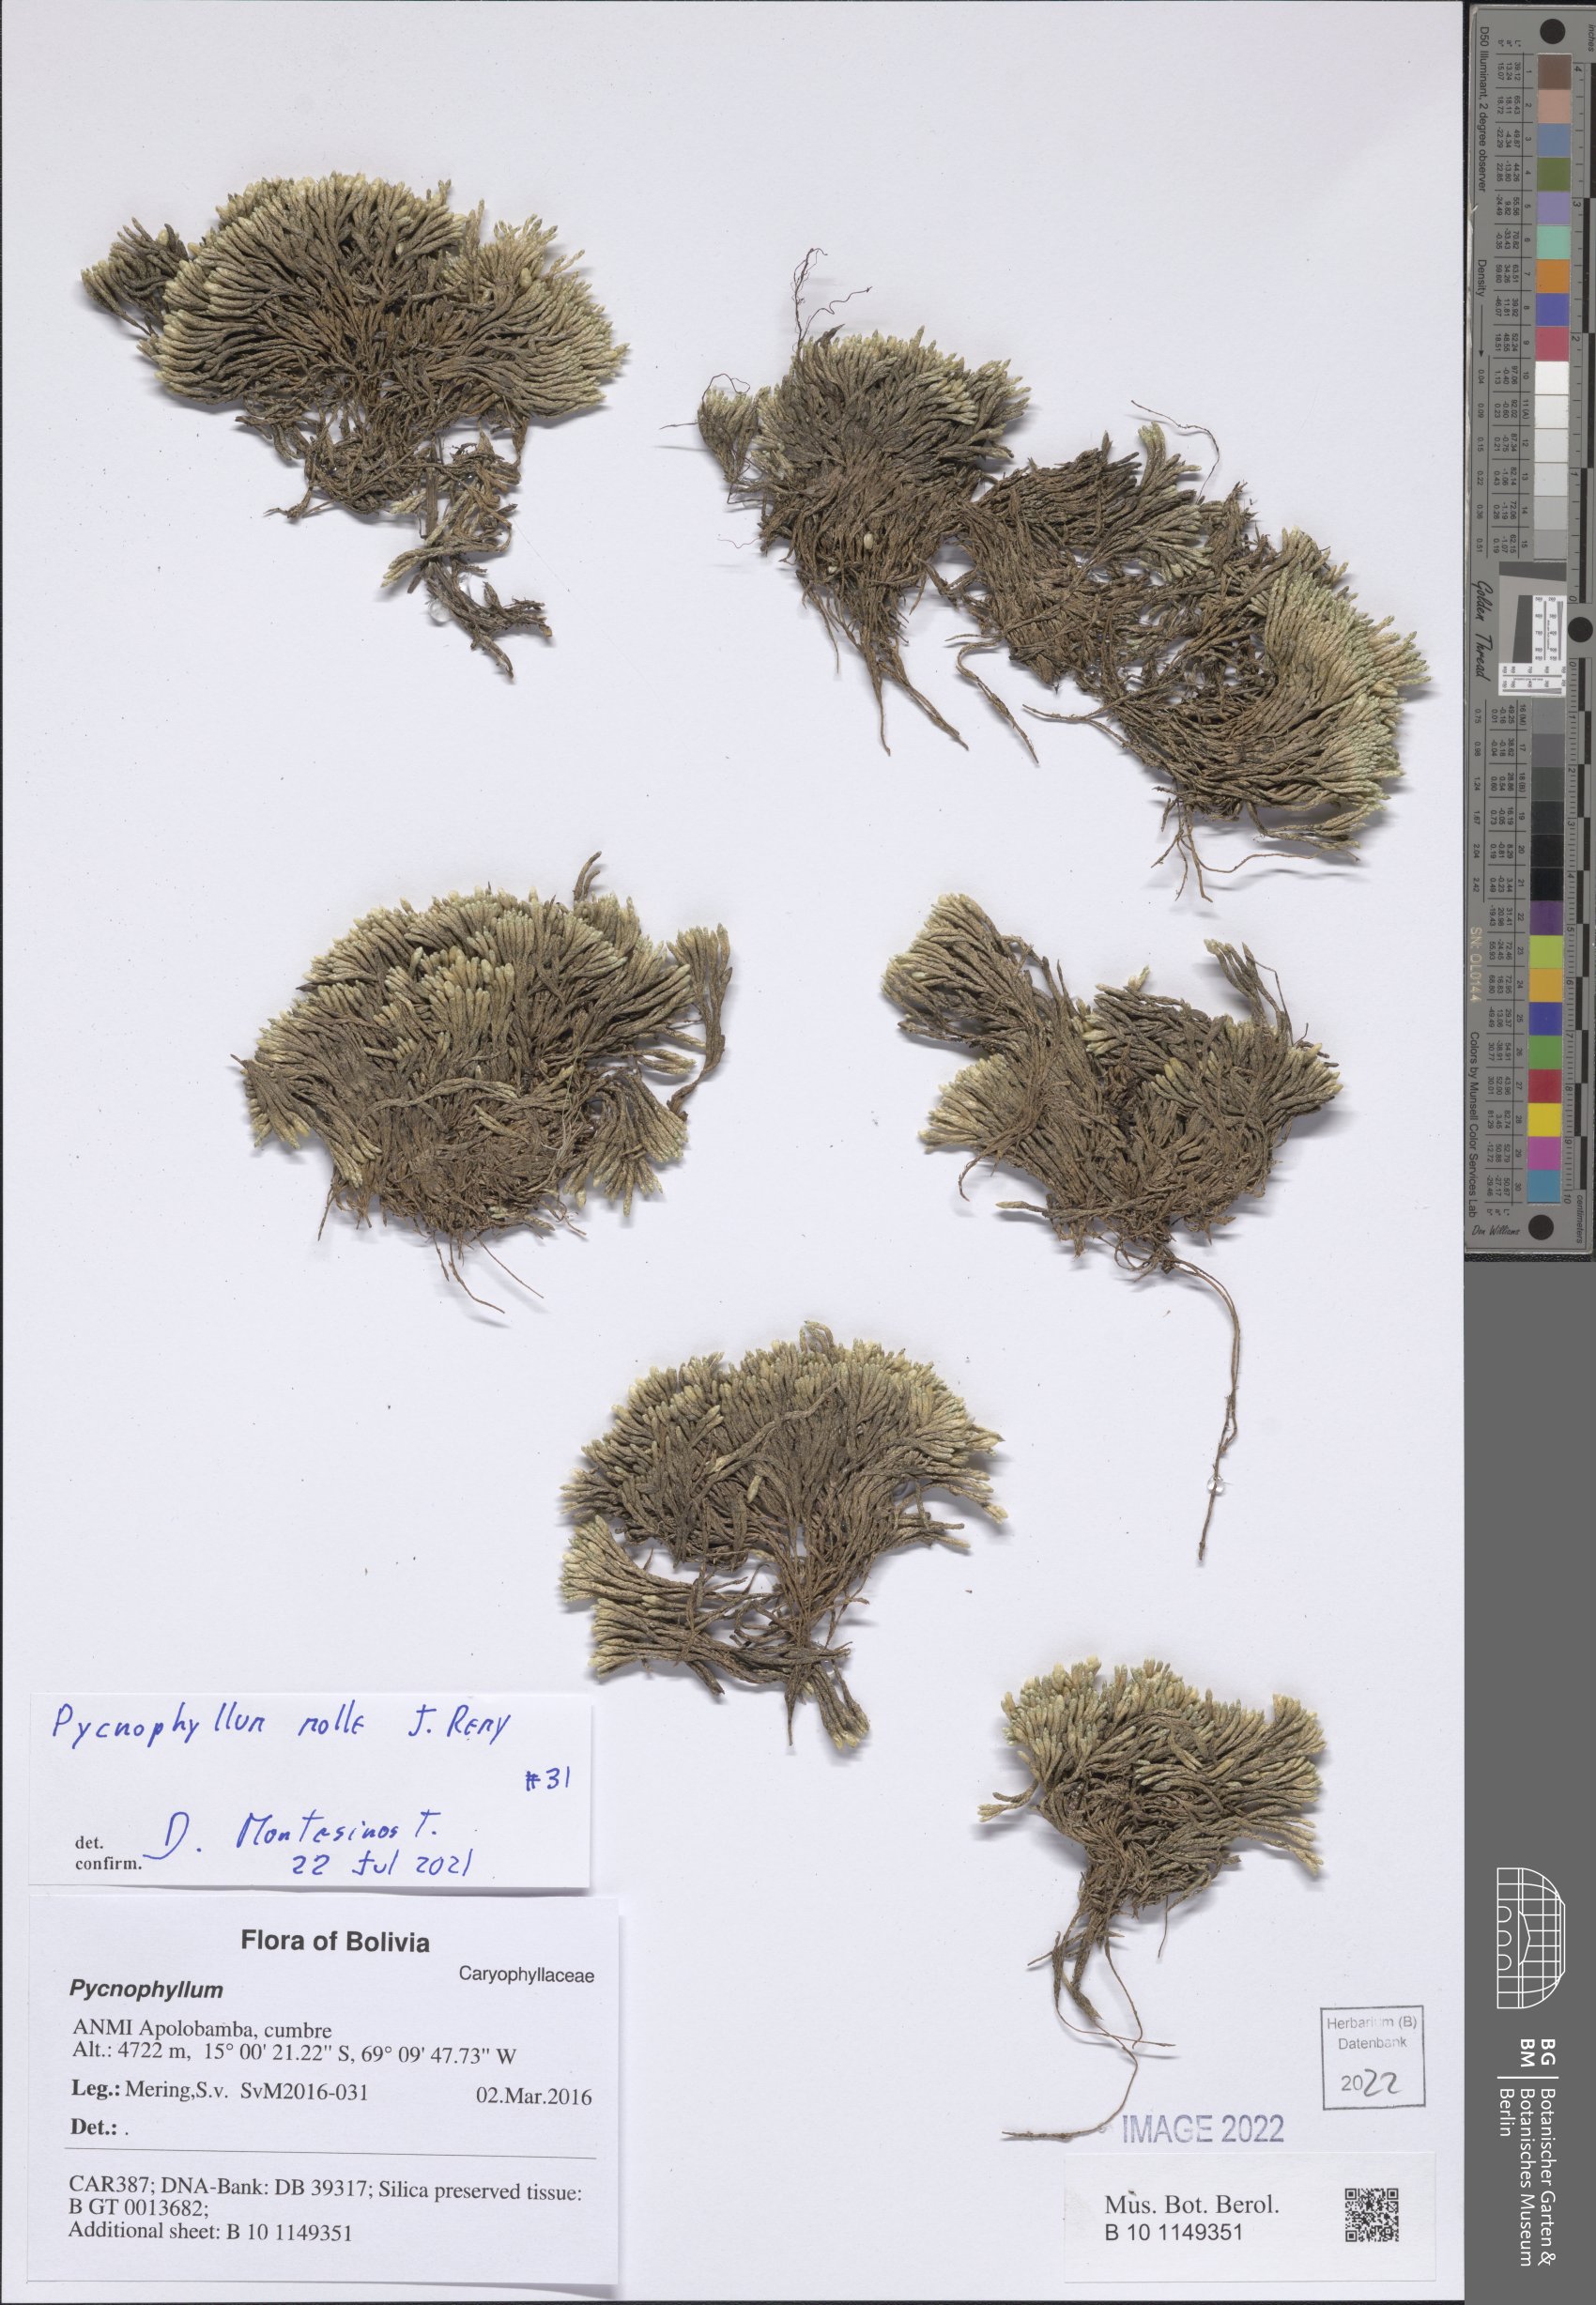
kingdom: Plantae
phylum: Tracheophyta
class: Magnoliopsida
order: Caryophyllales
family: Caryophyllaceae
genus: Pycnophyllum
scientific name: Pycnophyllum molle
